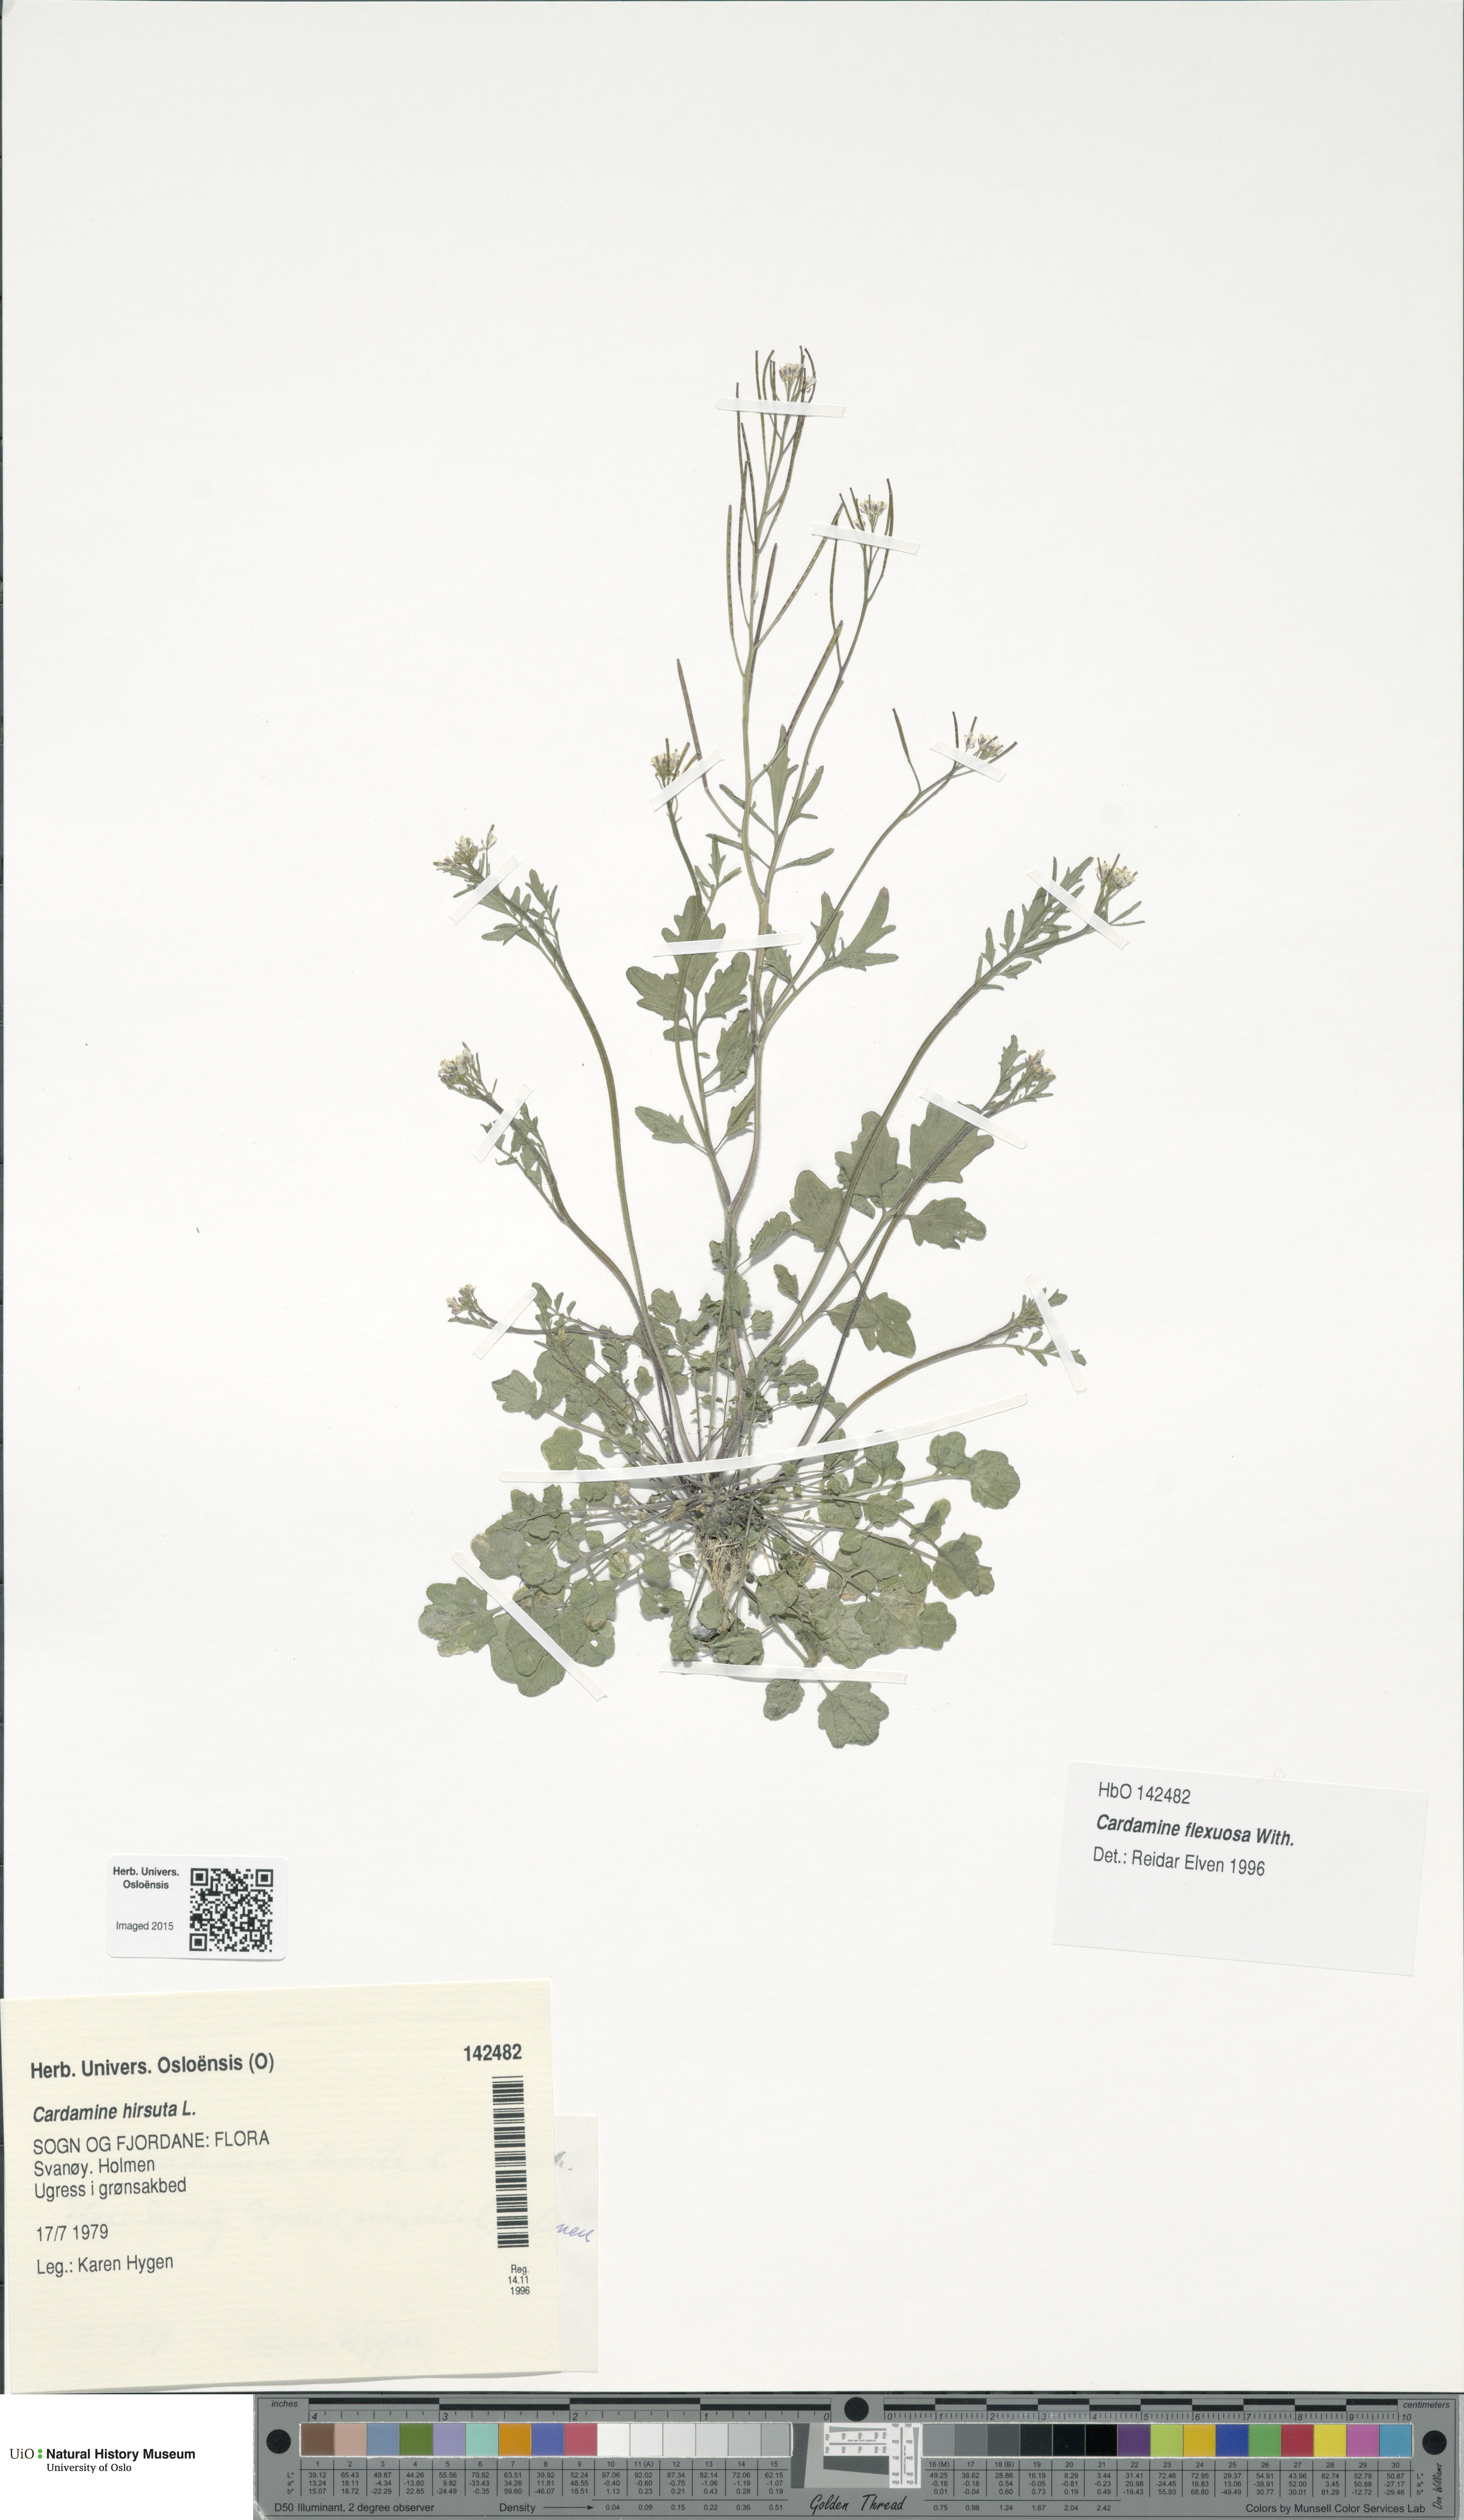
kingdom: Plantae
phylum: Tracheophyta
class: Magnoliopsida
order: Brassicales
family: Brassicaceae
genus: Cardamine
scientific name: Cardamine flexuosa
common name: Woodland bittercress
